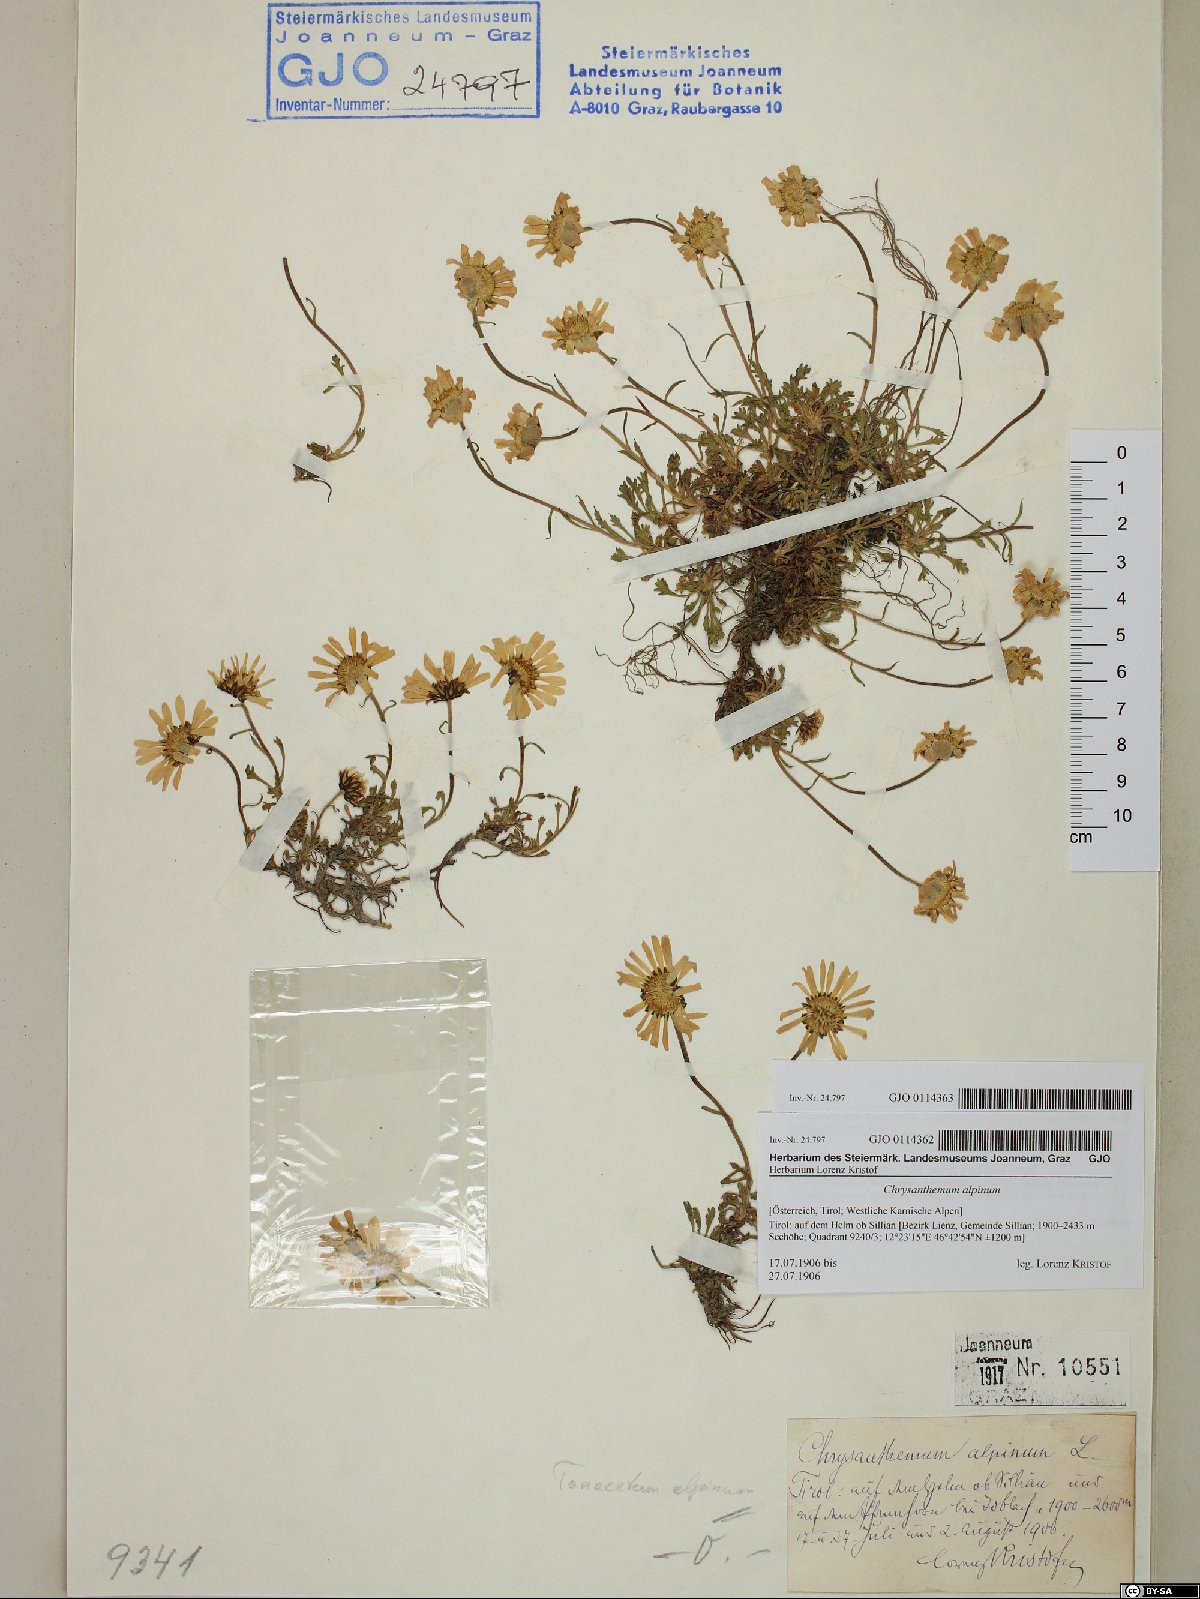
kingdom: Plantae
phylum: Tracheophyta
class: Magnoliopsida
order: Asterales
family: Asteraceae
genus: Leucanthemopsis
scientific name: Leucanthemopsis alpina
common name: Alpine moon daisy
